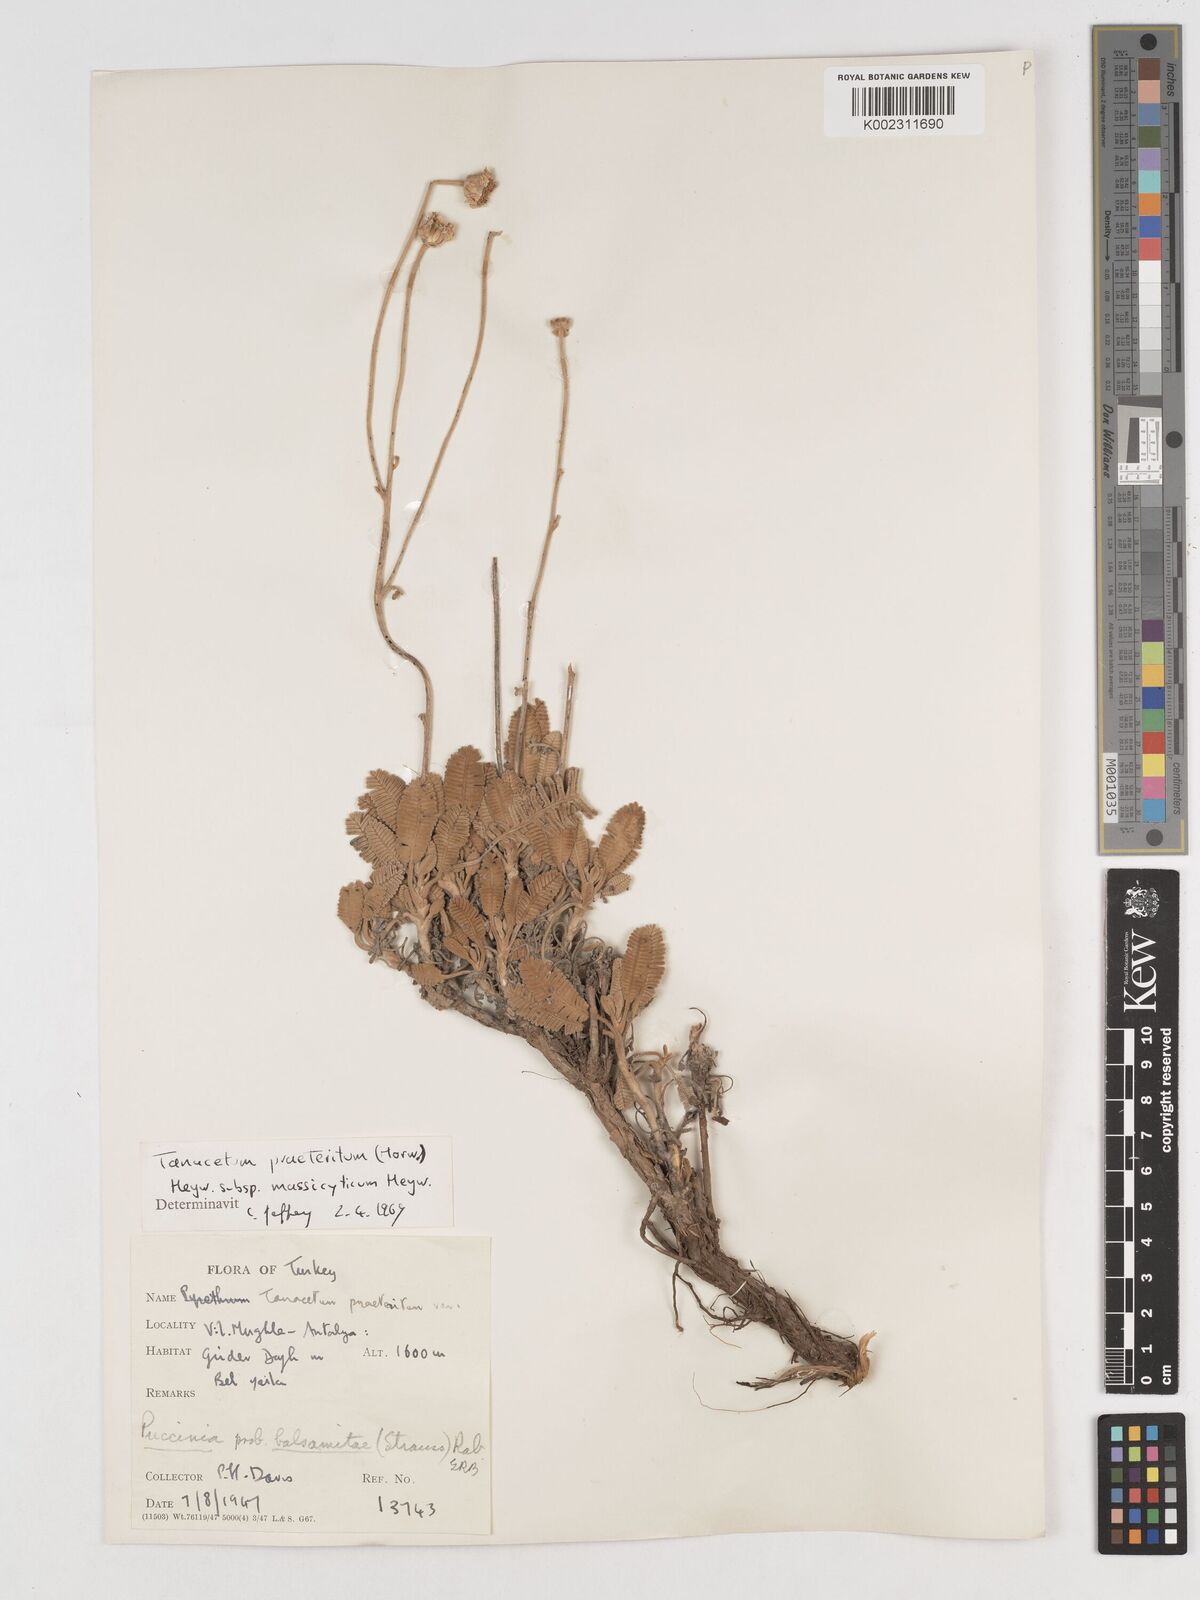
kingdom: Plantae
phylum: Tracheophyta
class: Magnoliopsida
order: Asterales
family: Asteraceae
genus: Tanacetum
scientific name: Tanacetum praeteritum
